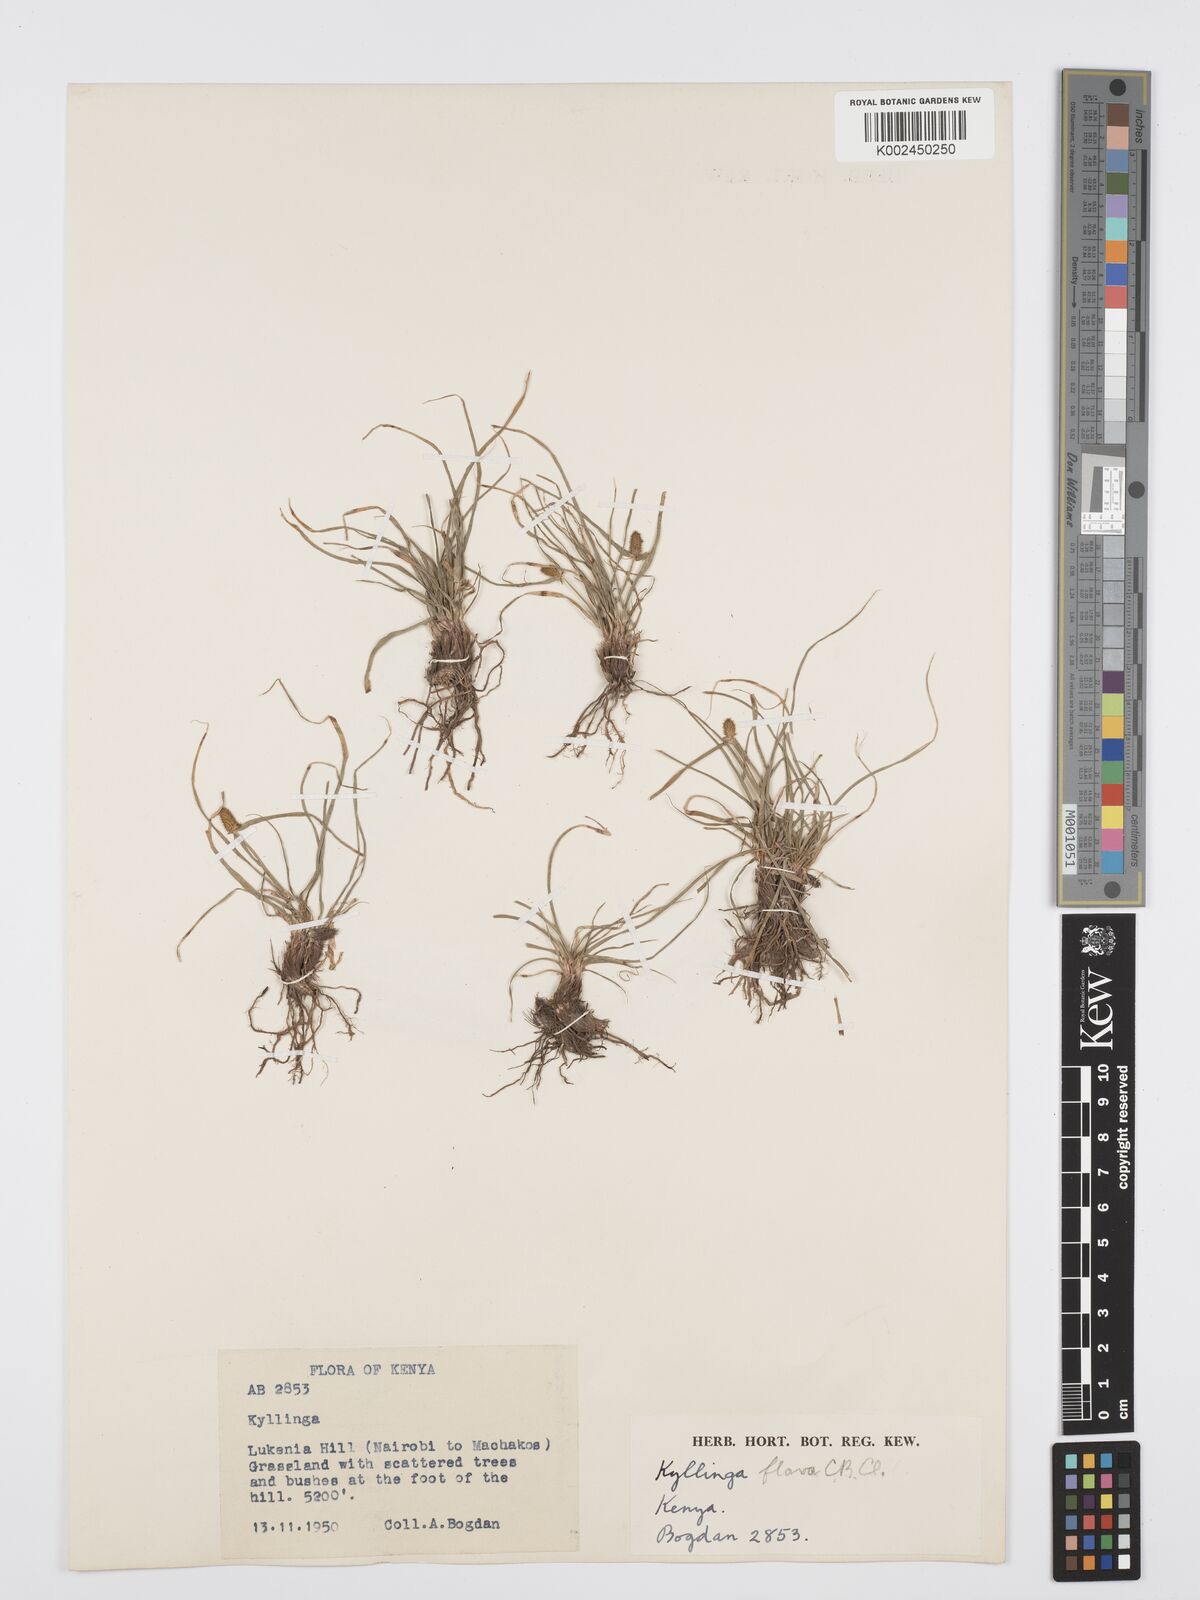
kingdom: Plantae
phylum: Tracheophyta
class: Liliopsida
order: Poales
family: Cyperaceae
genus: Cyperus
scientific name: Cyperus
